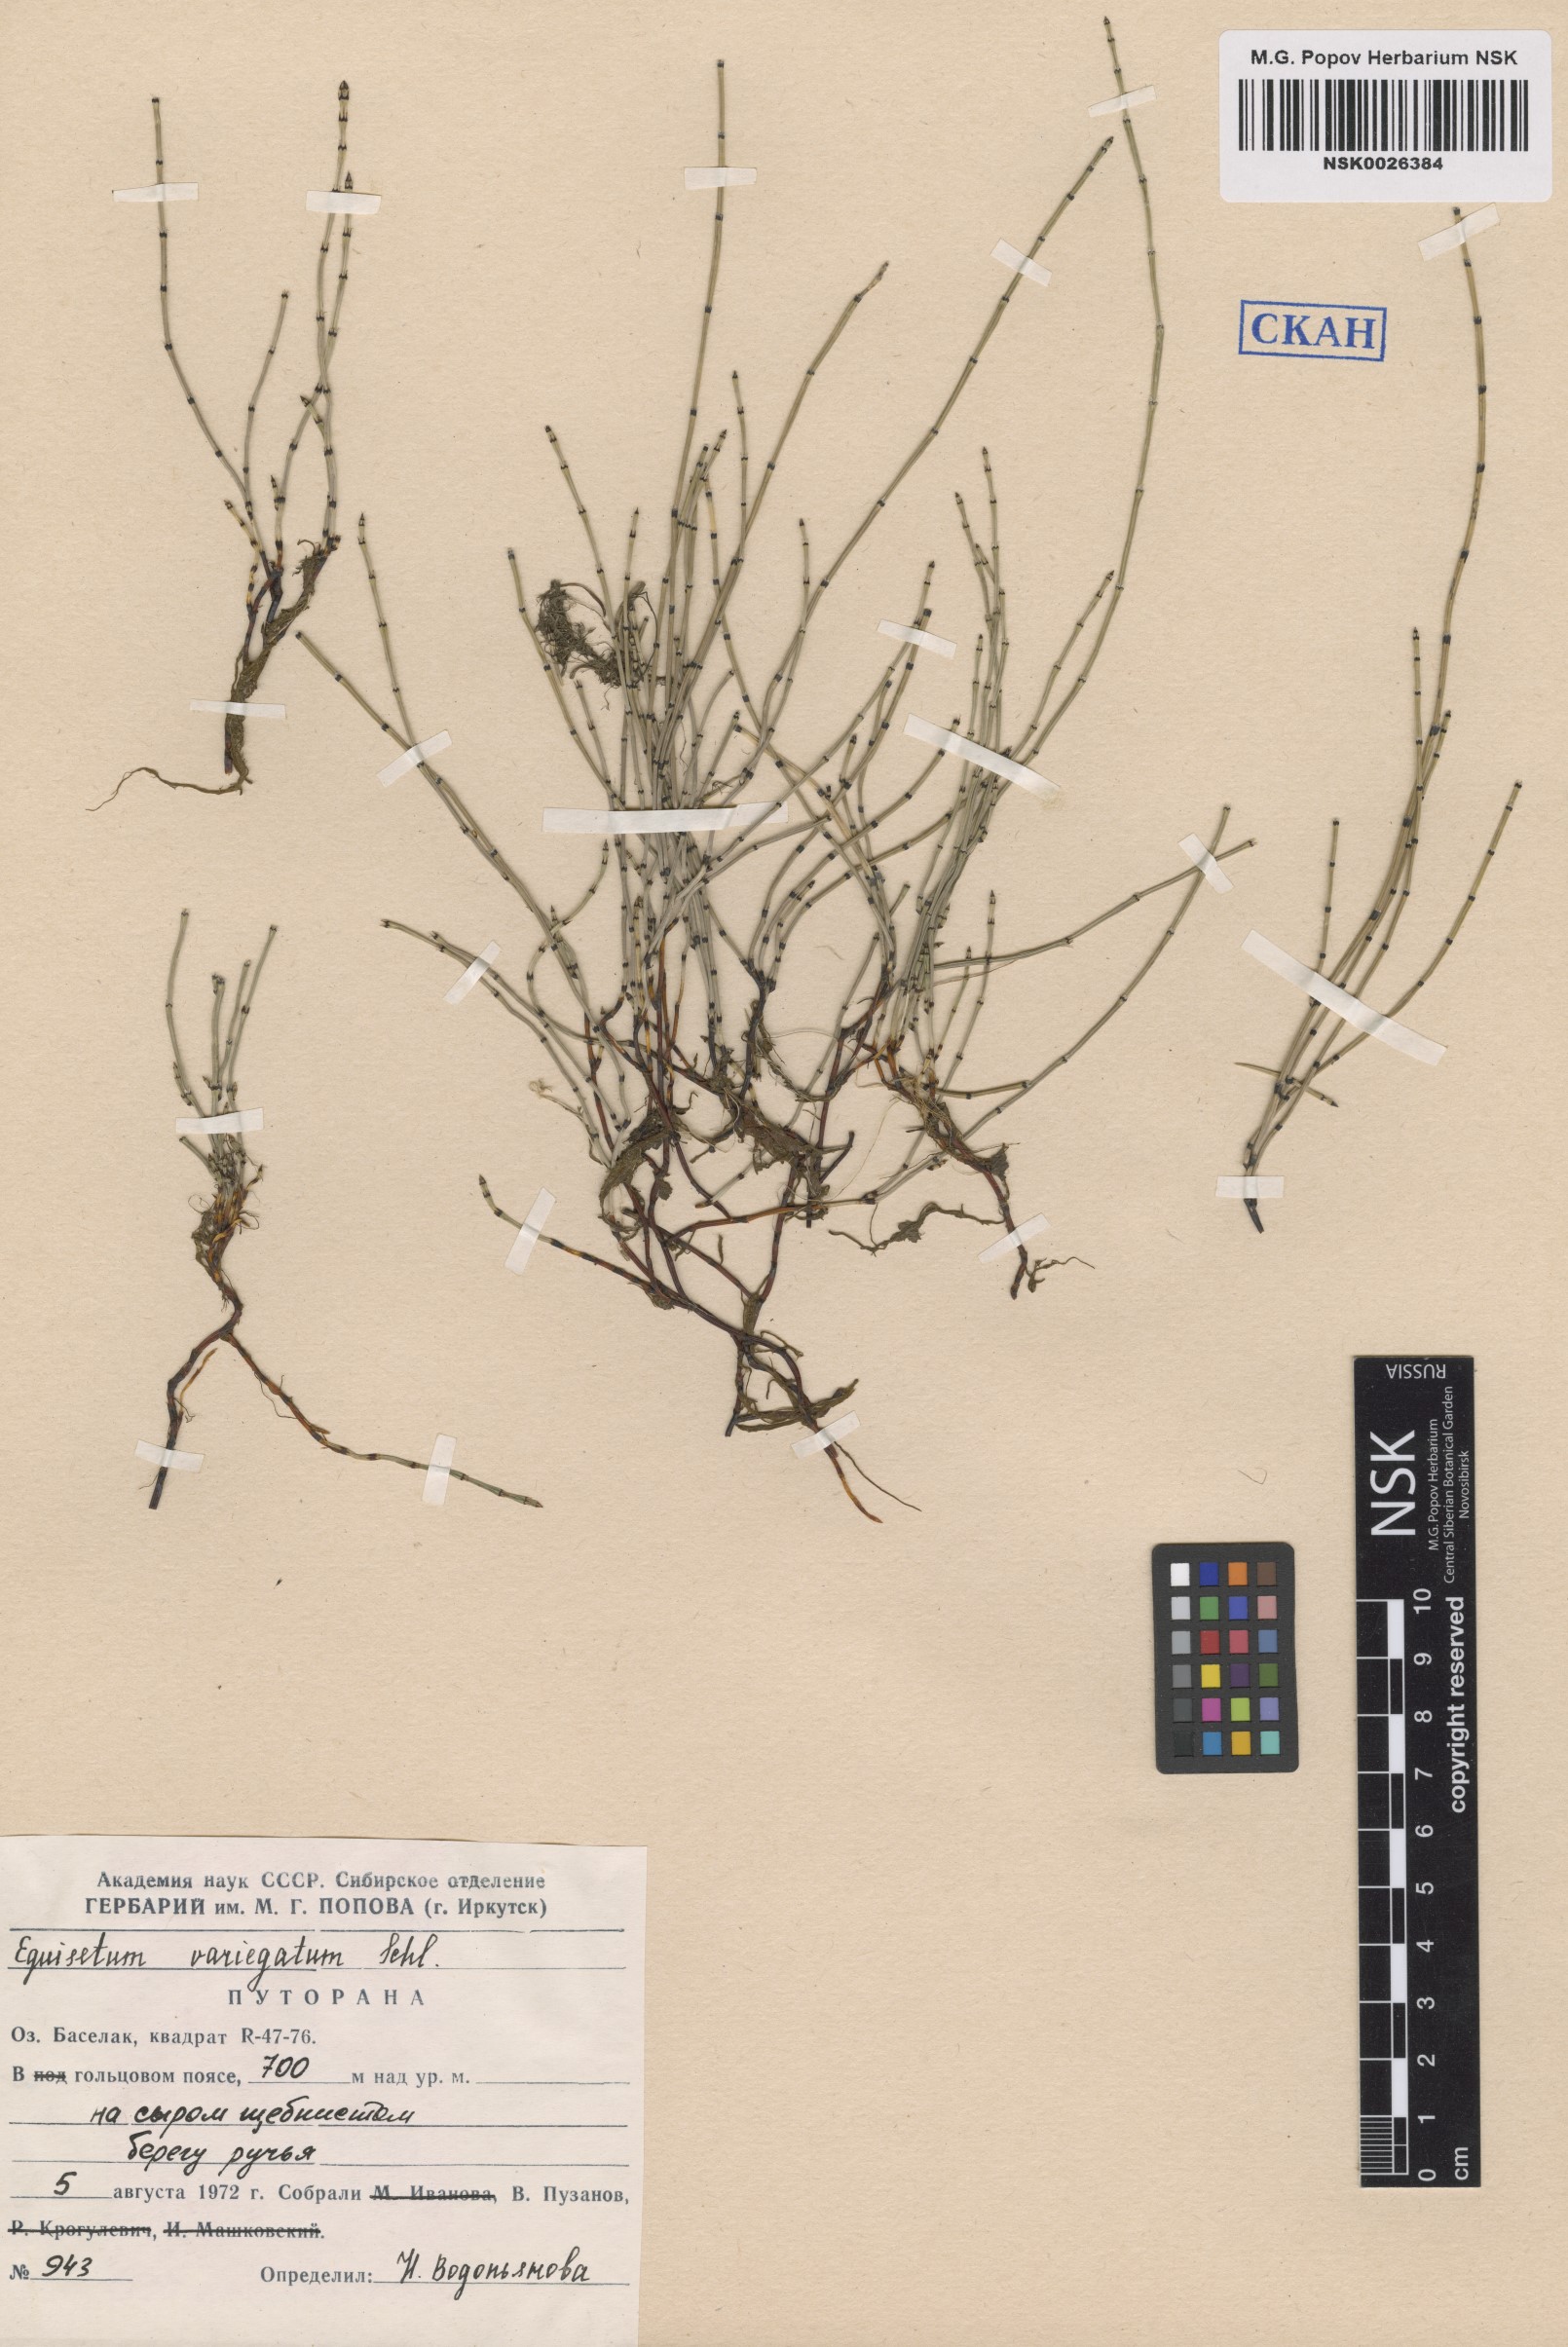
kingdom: Plantae
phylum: Tracheophyta
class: Polypodiopsida
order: Equisetales
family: Equisetaceae
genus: Equisetum
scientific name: Equisetum variegatum
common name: Variegated horsetail
